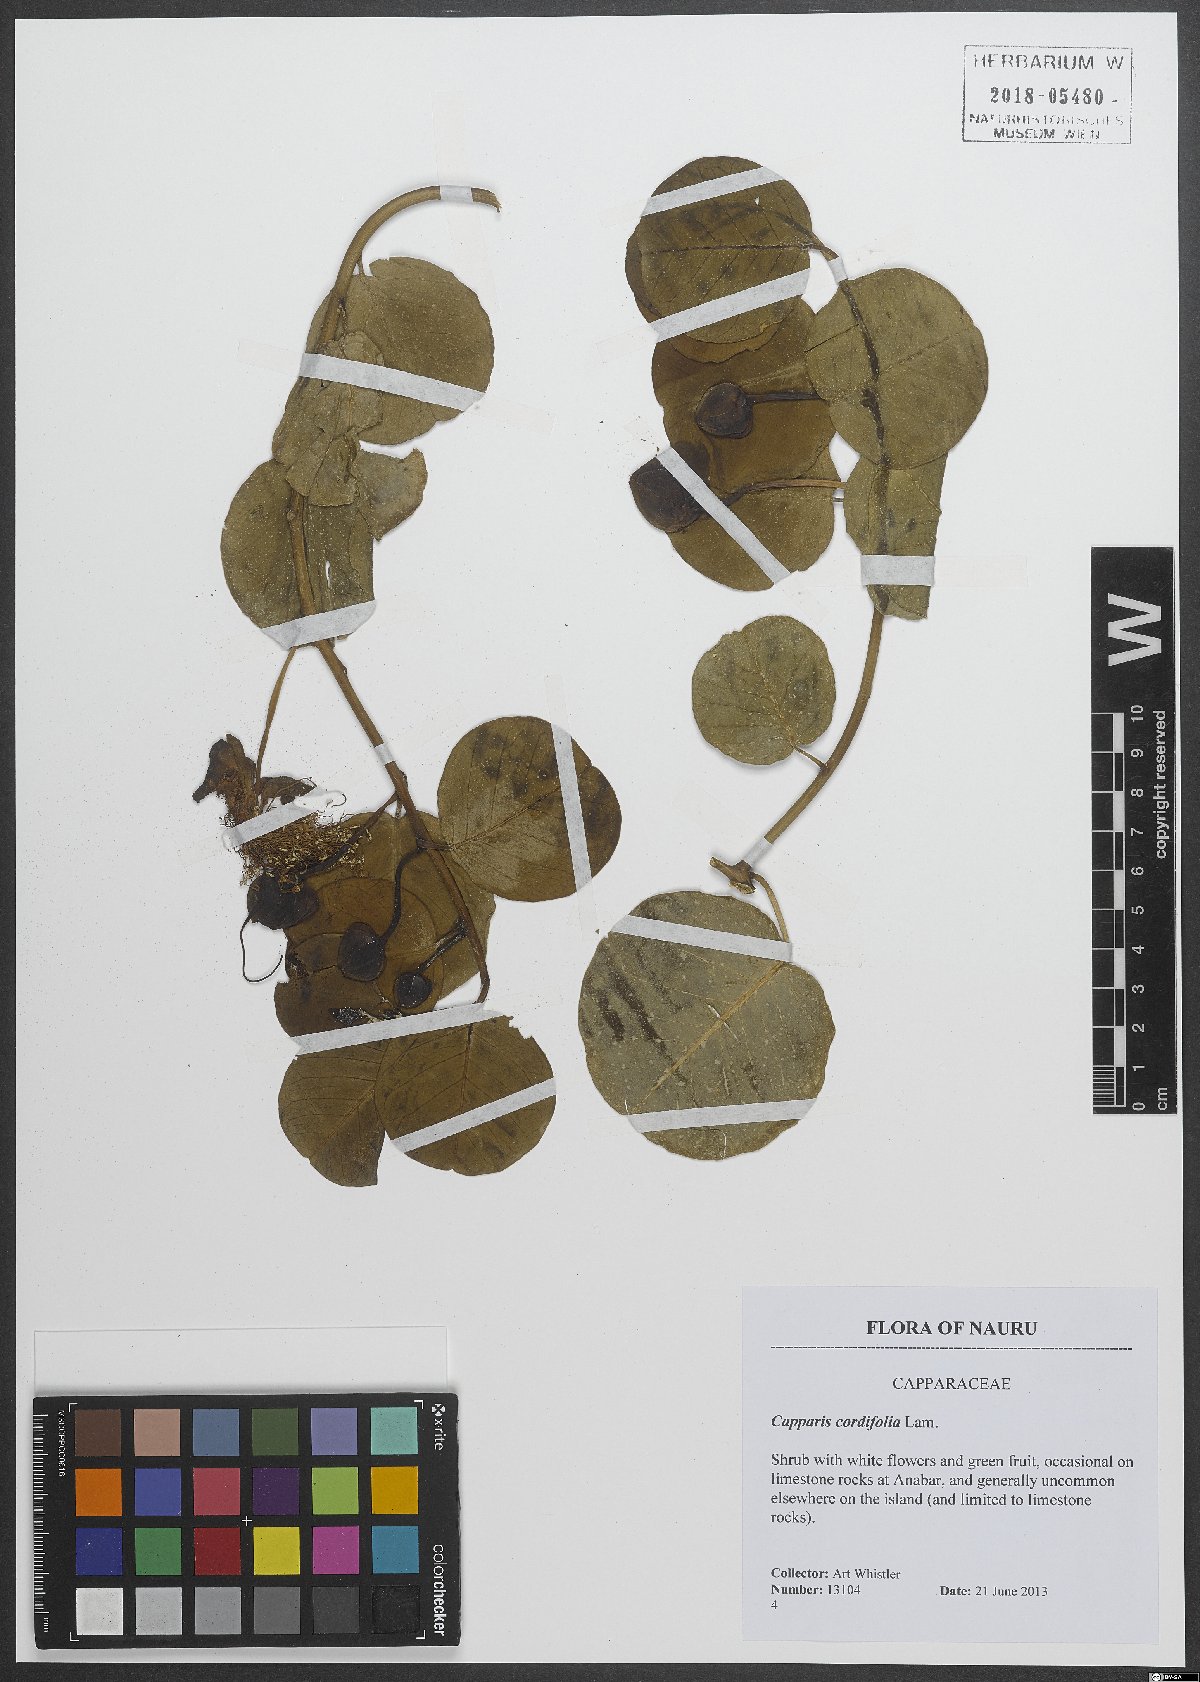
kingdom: Plantae
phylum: Tracheophyta
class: Magnoliopsida
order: Brassicales
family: Capparaceae
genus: Capparis
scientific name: Capparis spinosa
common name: Caper
